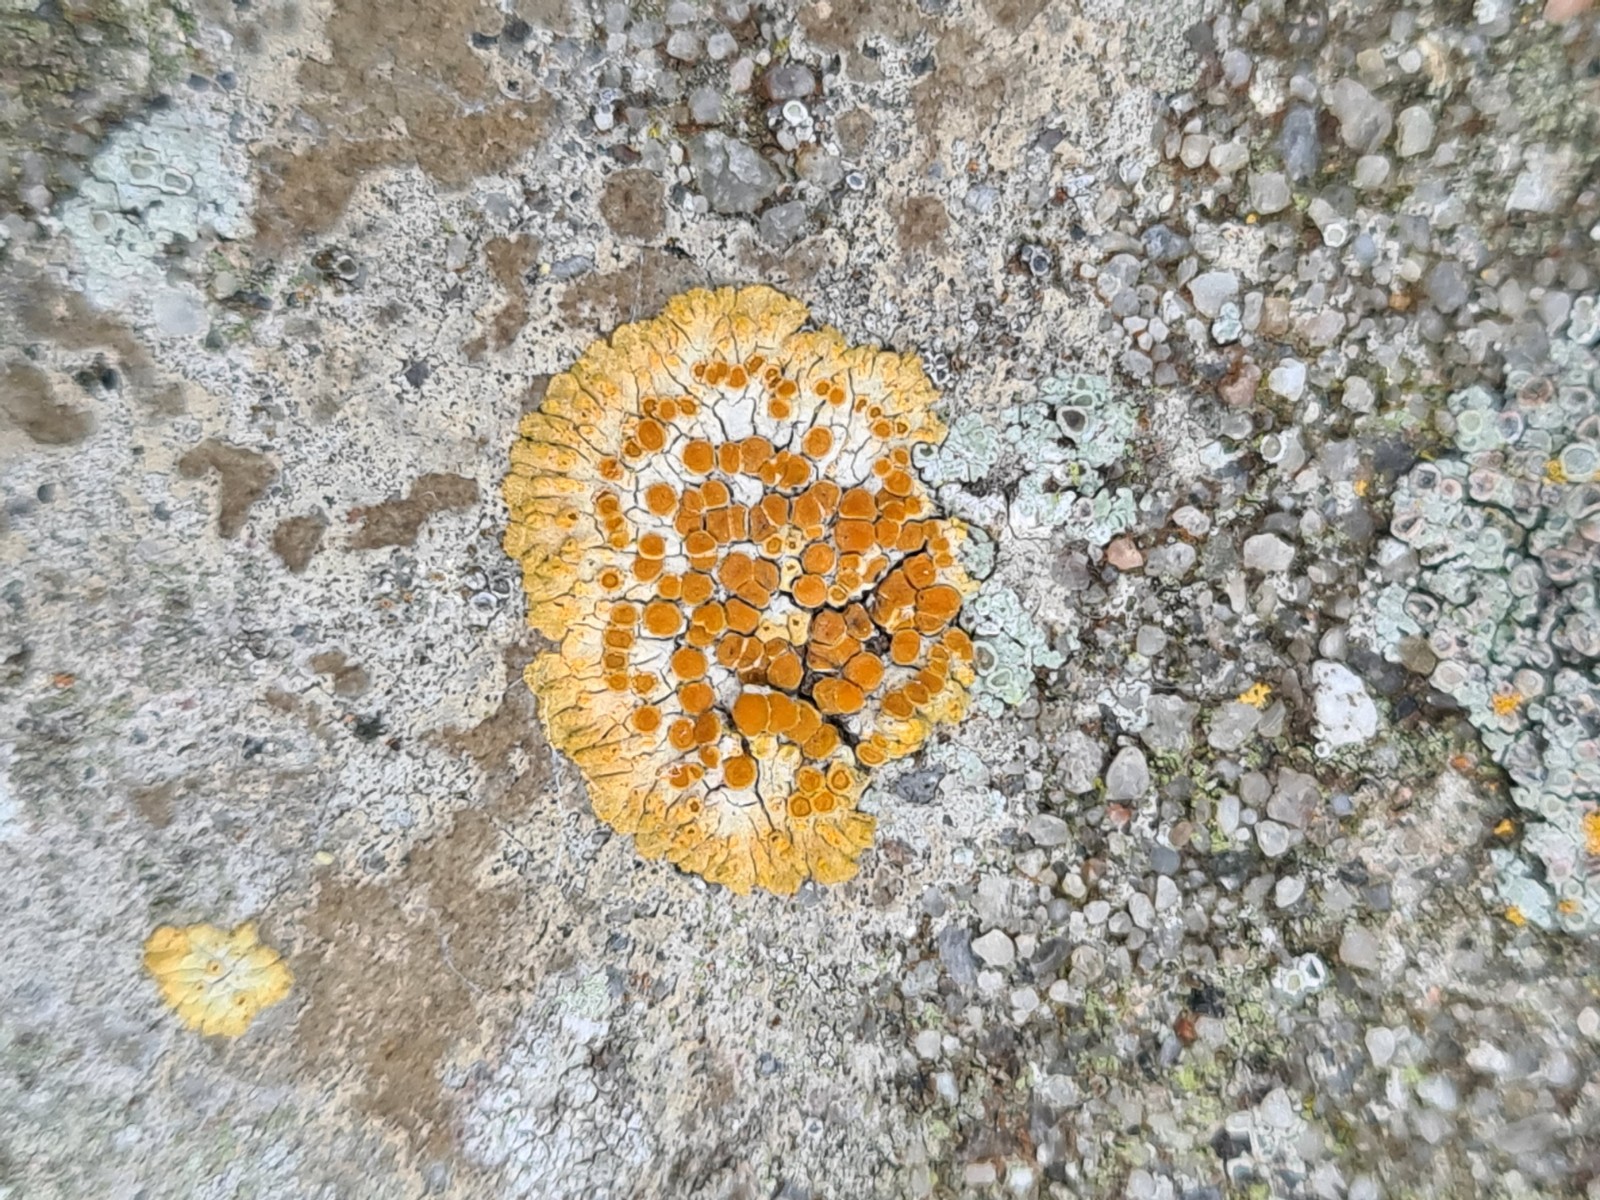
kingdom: Fungi
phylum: Ascomycota
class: Lecanoromycetes
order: Teloschistales
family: Teloschistaceae
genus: Calogaya
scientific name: Calogaya pusilla
